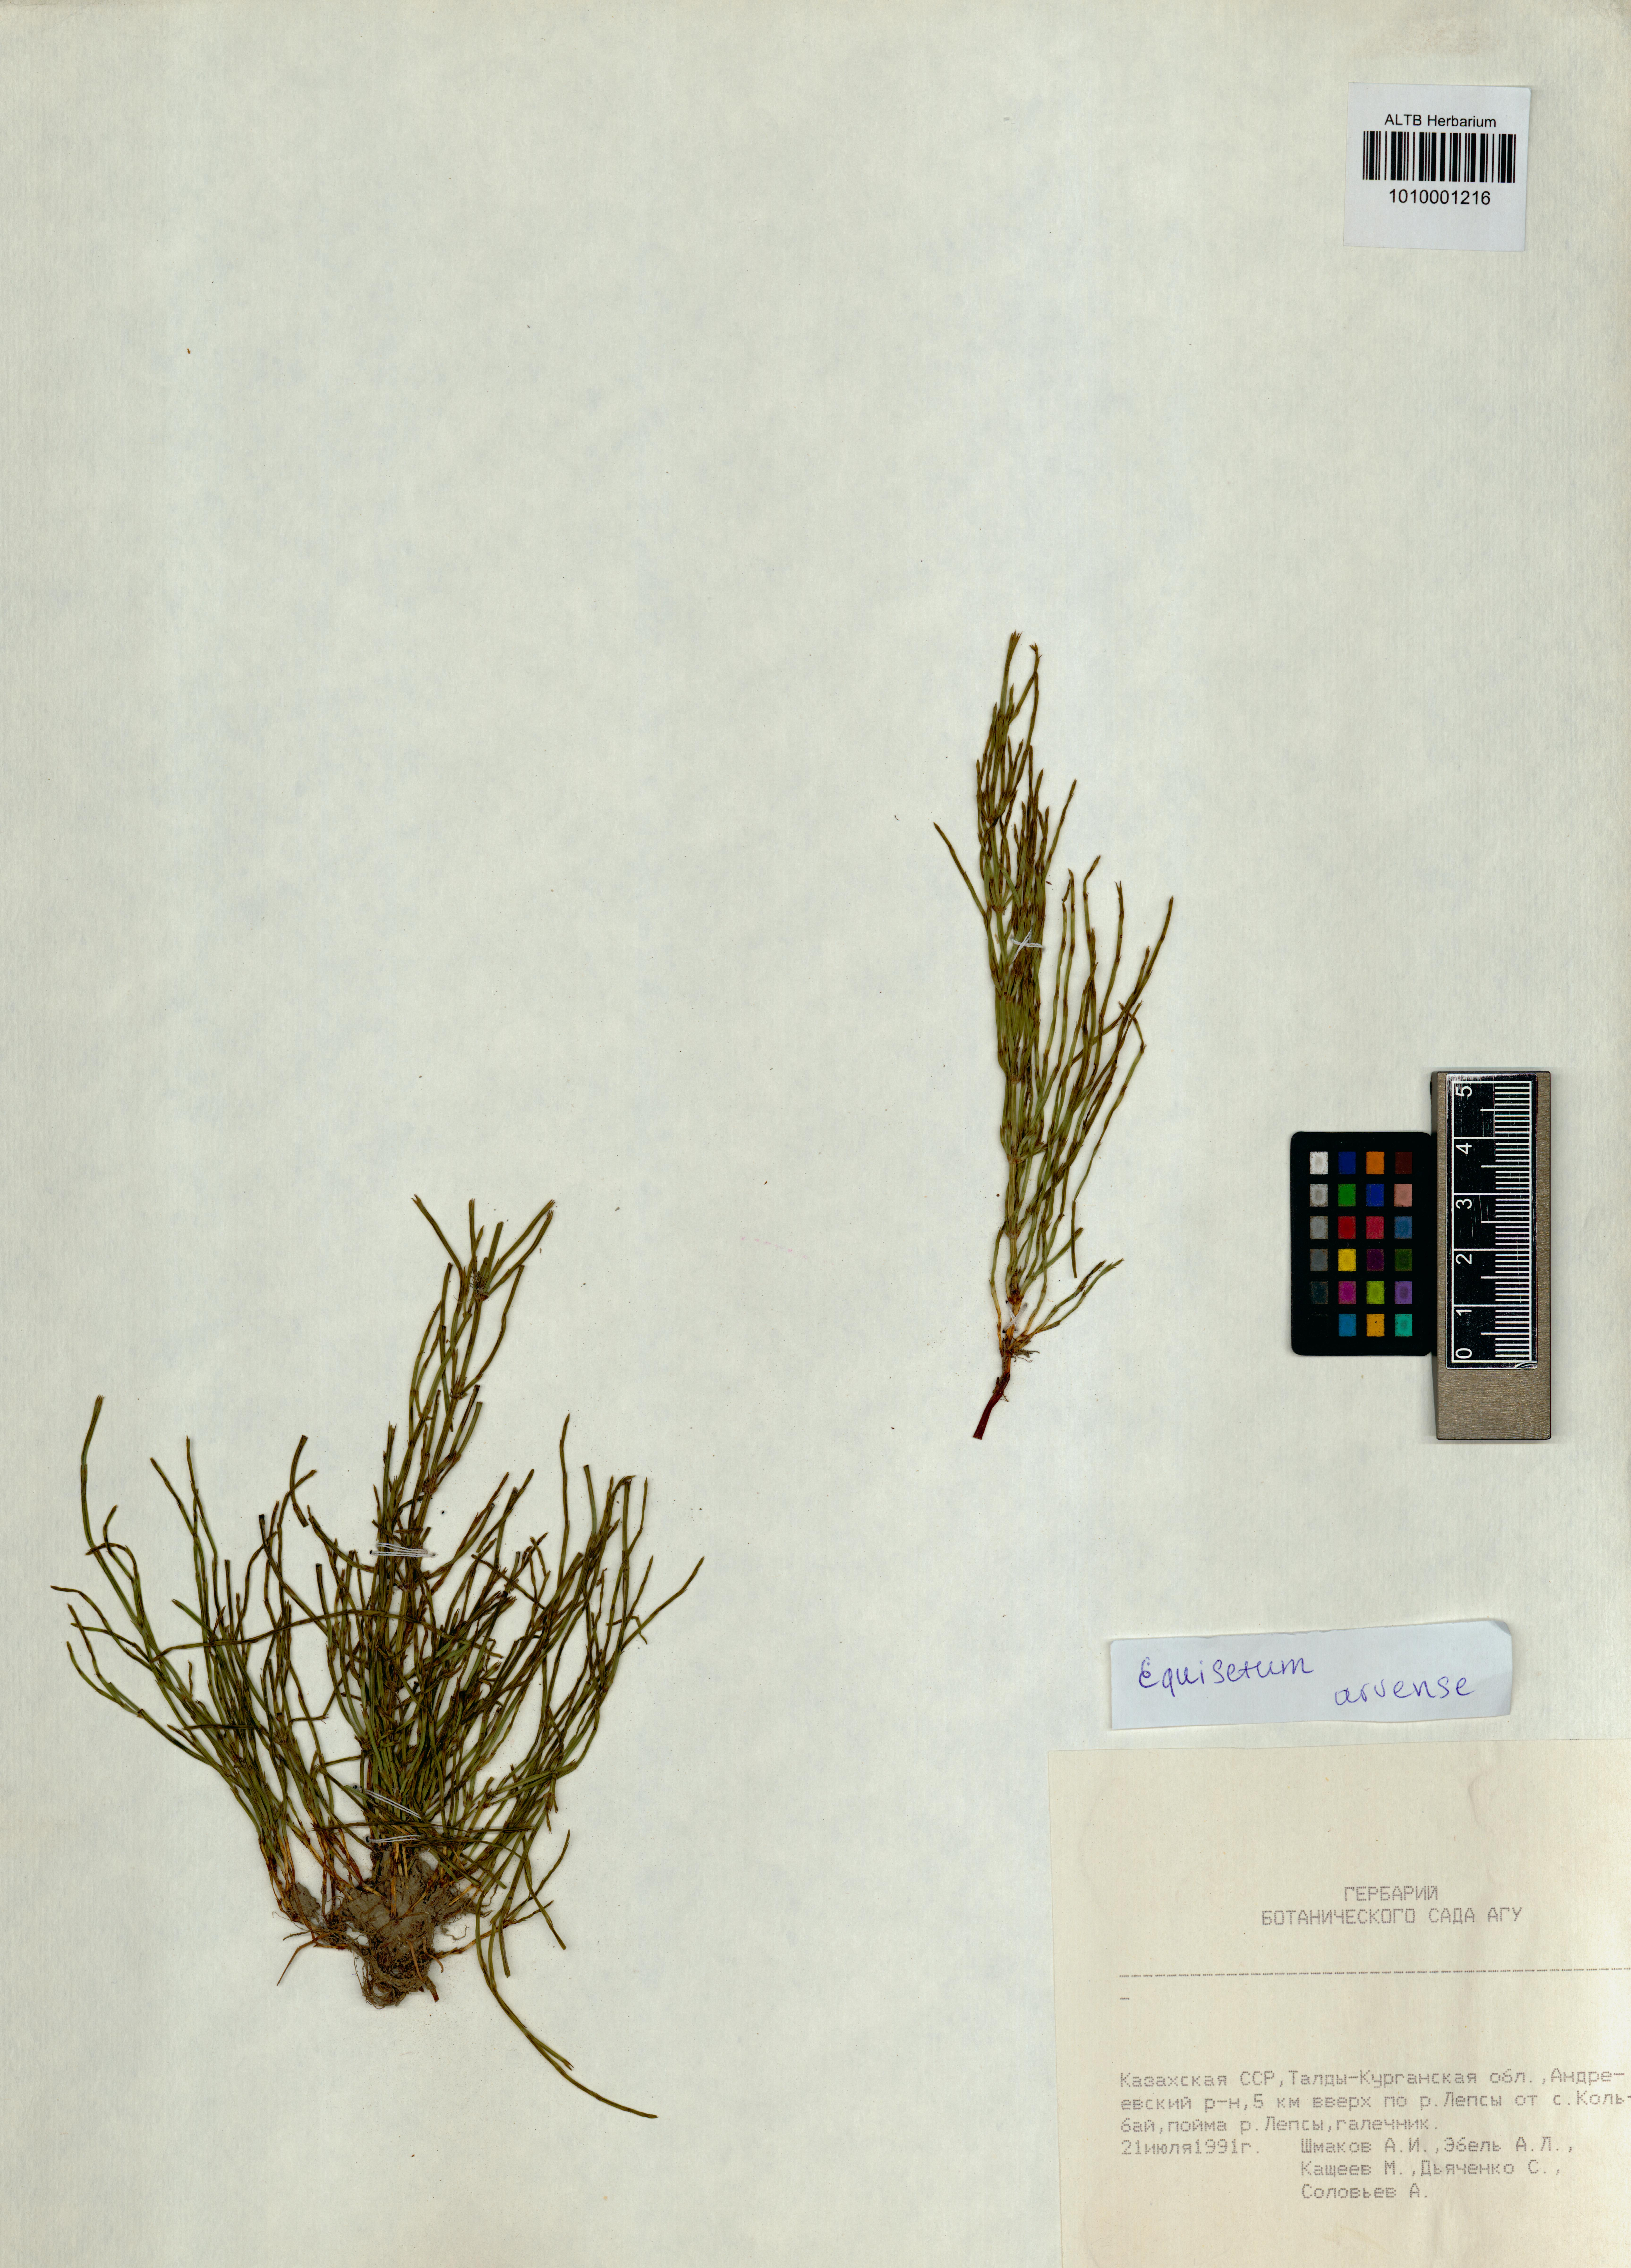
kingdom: Plantae
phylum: Tracheophyta
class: Polypodiopsida
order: Equisetales
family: Equisetaceae
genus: Equisetum
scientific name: Equisetum arvense
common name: Field horsetail
